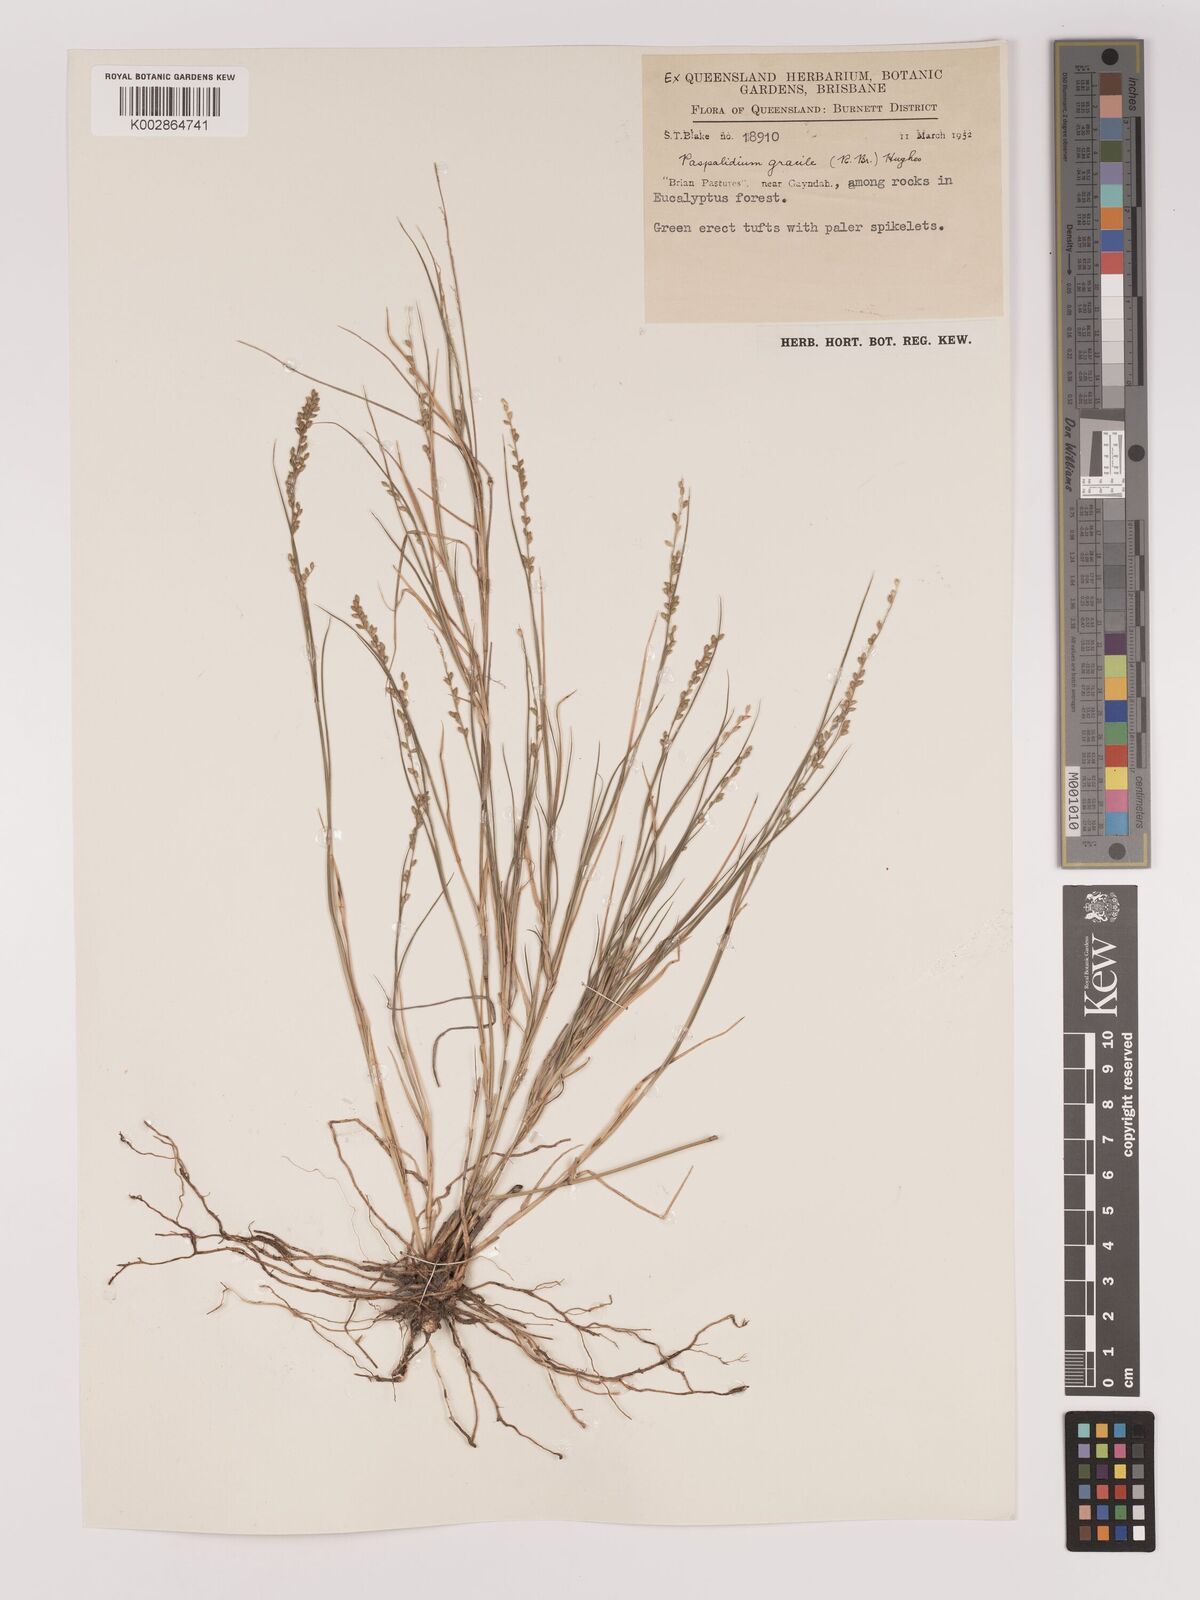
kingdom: Plantae
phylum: Tracheophyta
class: Liliopsida
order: Poales
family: Poaceae
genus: Setaria
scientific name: Setaria brownii
